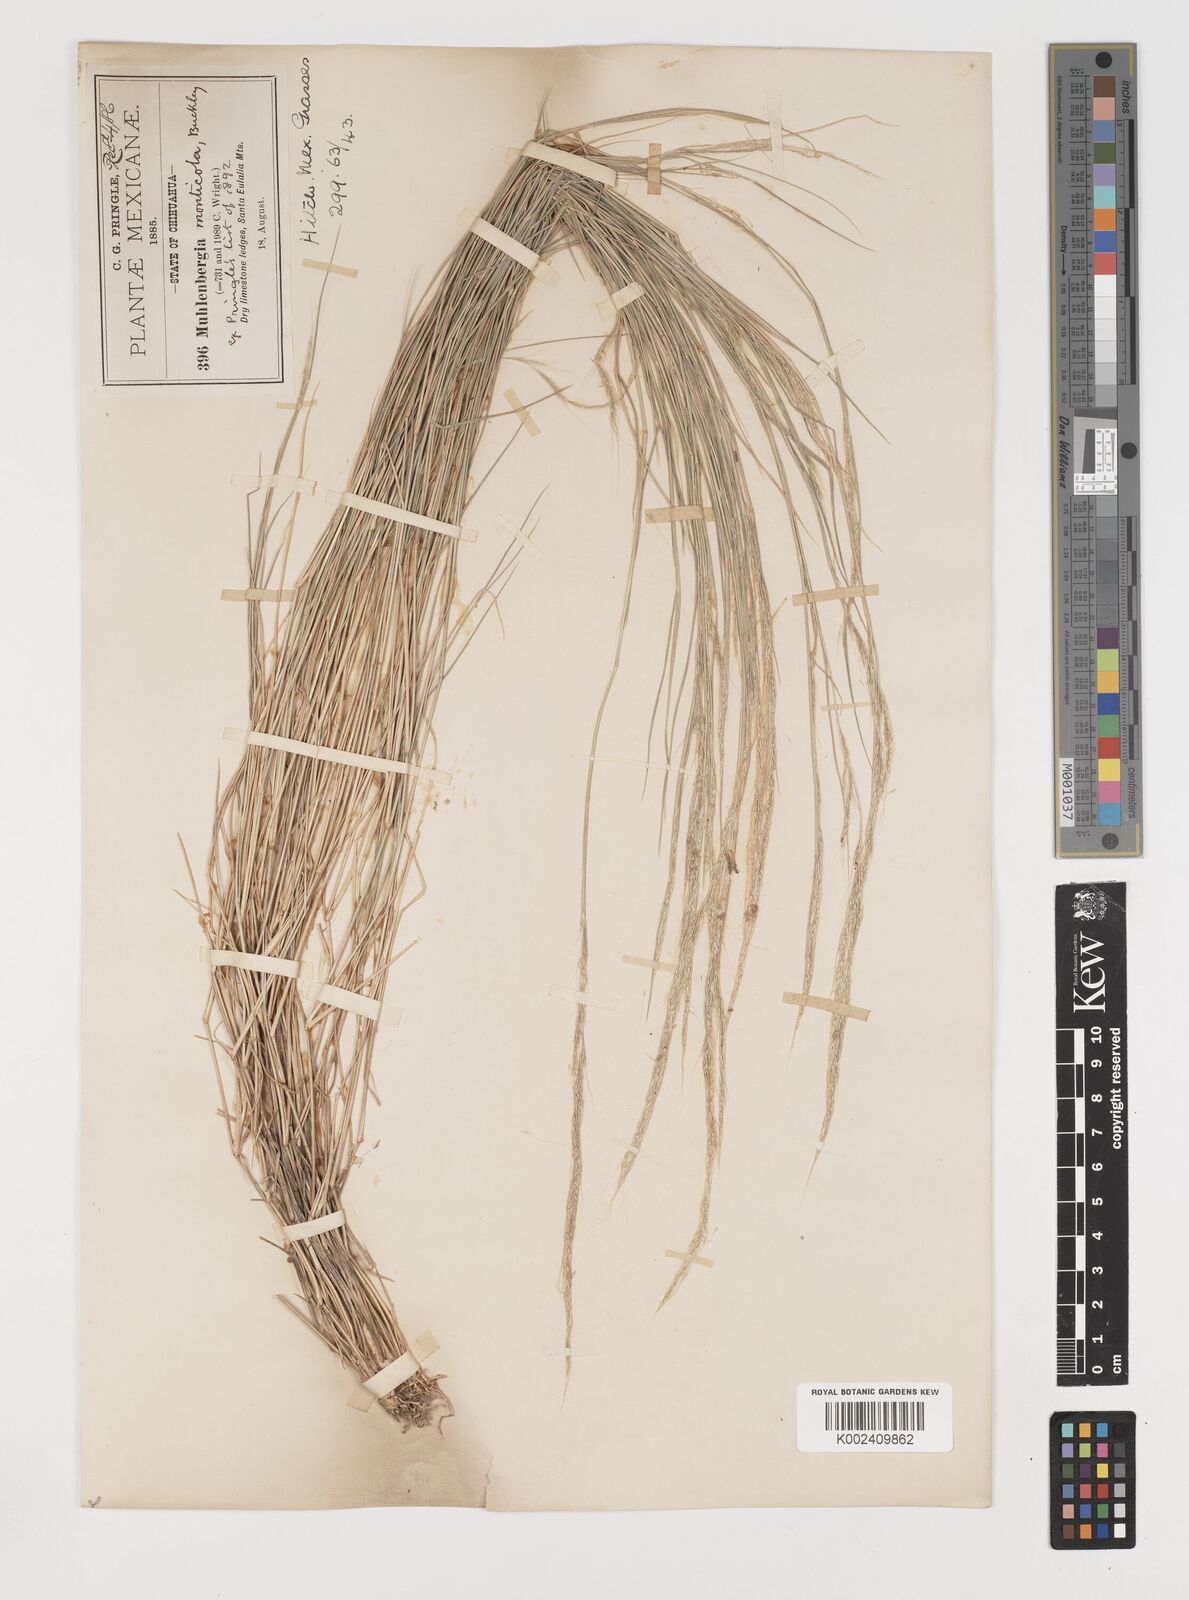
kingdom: Plantae
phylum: Tracheophyta
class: Liliopsida
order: Poales
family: Poaceae
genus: Muhlenbergia
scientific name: Muhlenbergia tenuifolia
